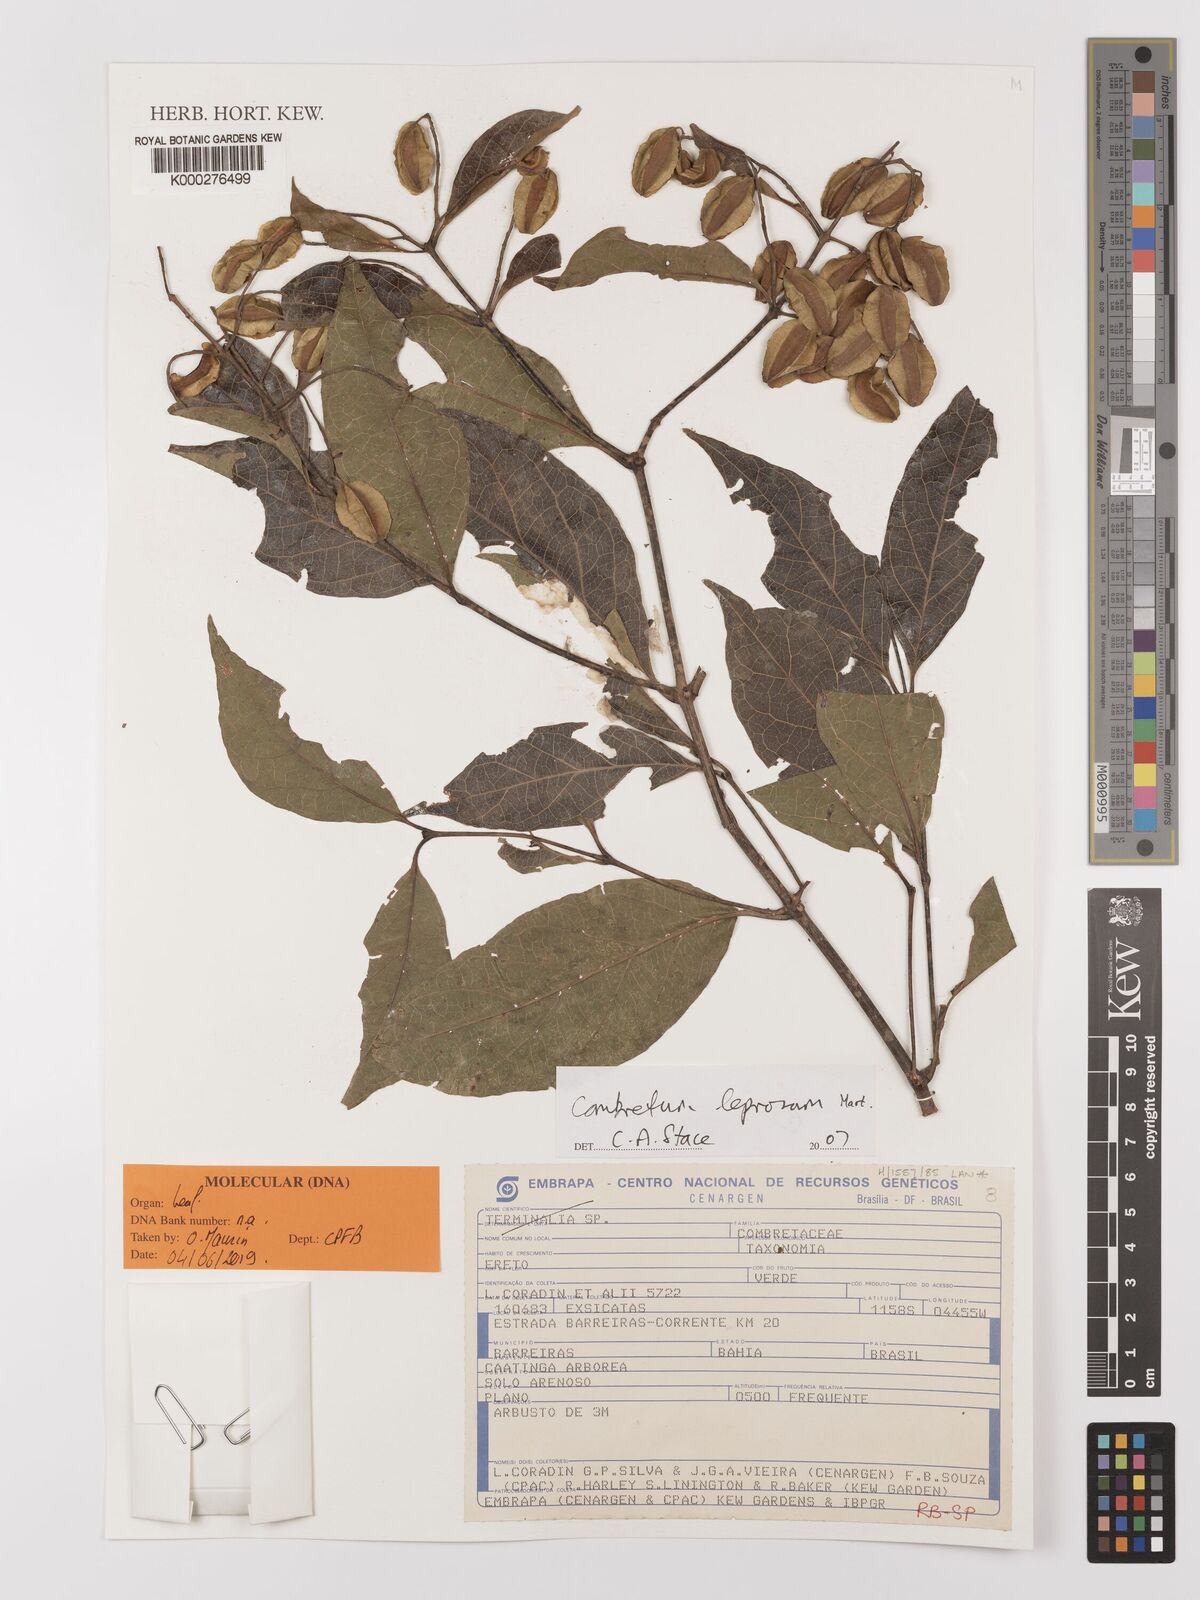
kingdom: Plantae
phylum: Tracheophyta
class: Magnoliopsida
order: Myrtales
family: Combretaceae
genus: Combretum
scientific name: Combretum leprosum
